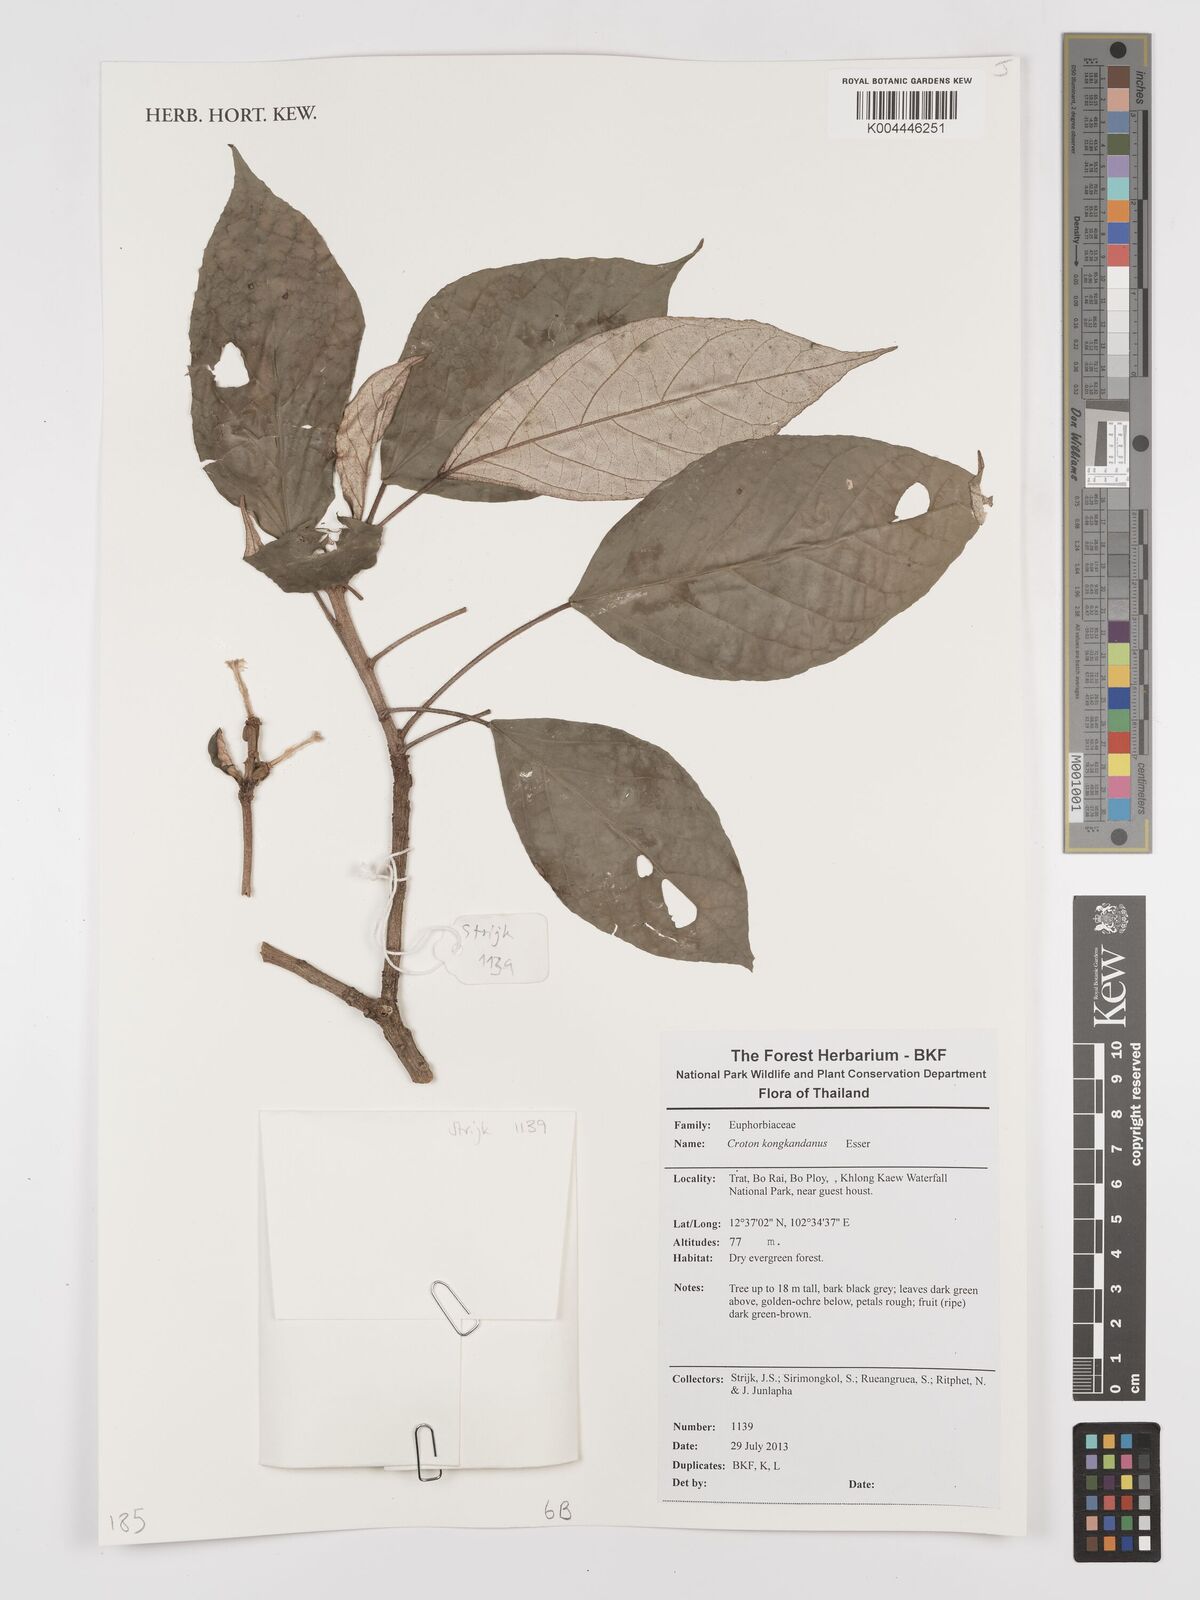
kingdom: Plantae
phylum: Tracheophyta
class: Magnoliopsida
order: Malpighiales
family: Euphorbiaceae
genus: Croton
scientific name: Croton kongkandanus
